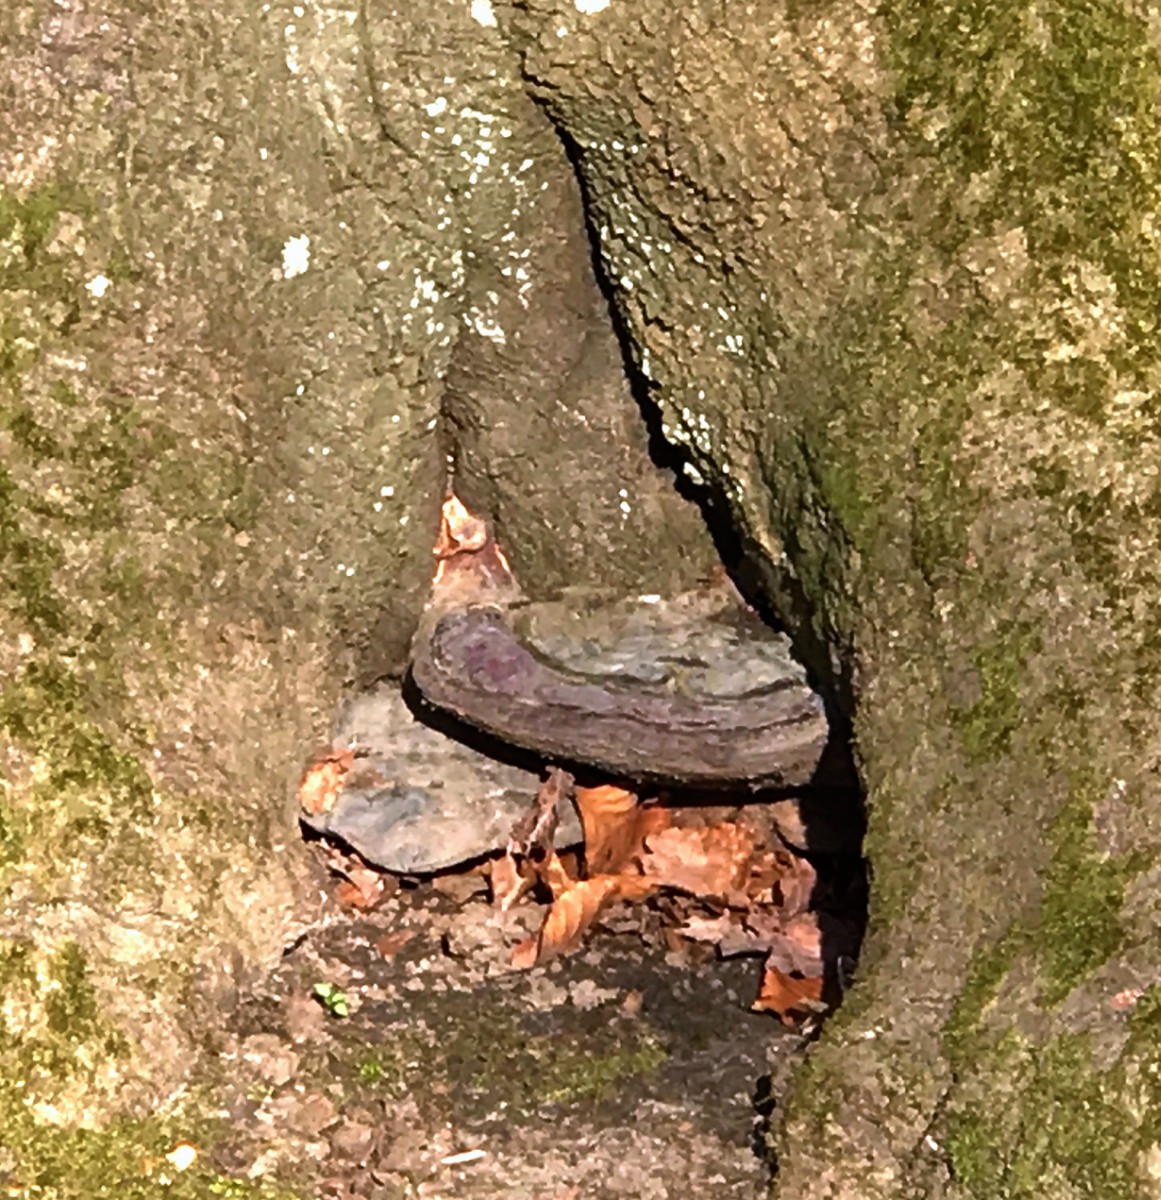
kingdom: Fungi
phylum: Basidiomycota
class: Agaricomycetes
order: Polyporales
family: Polyporaceae
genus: Ganoderma
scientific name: Ganoderma pfeifferi
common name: kobberrød lakporesvamp
